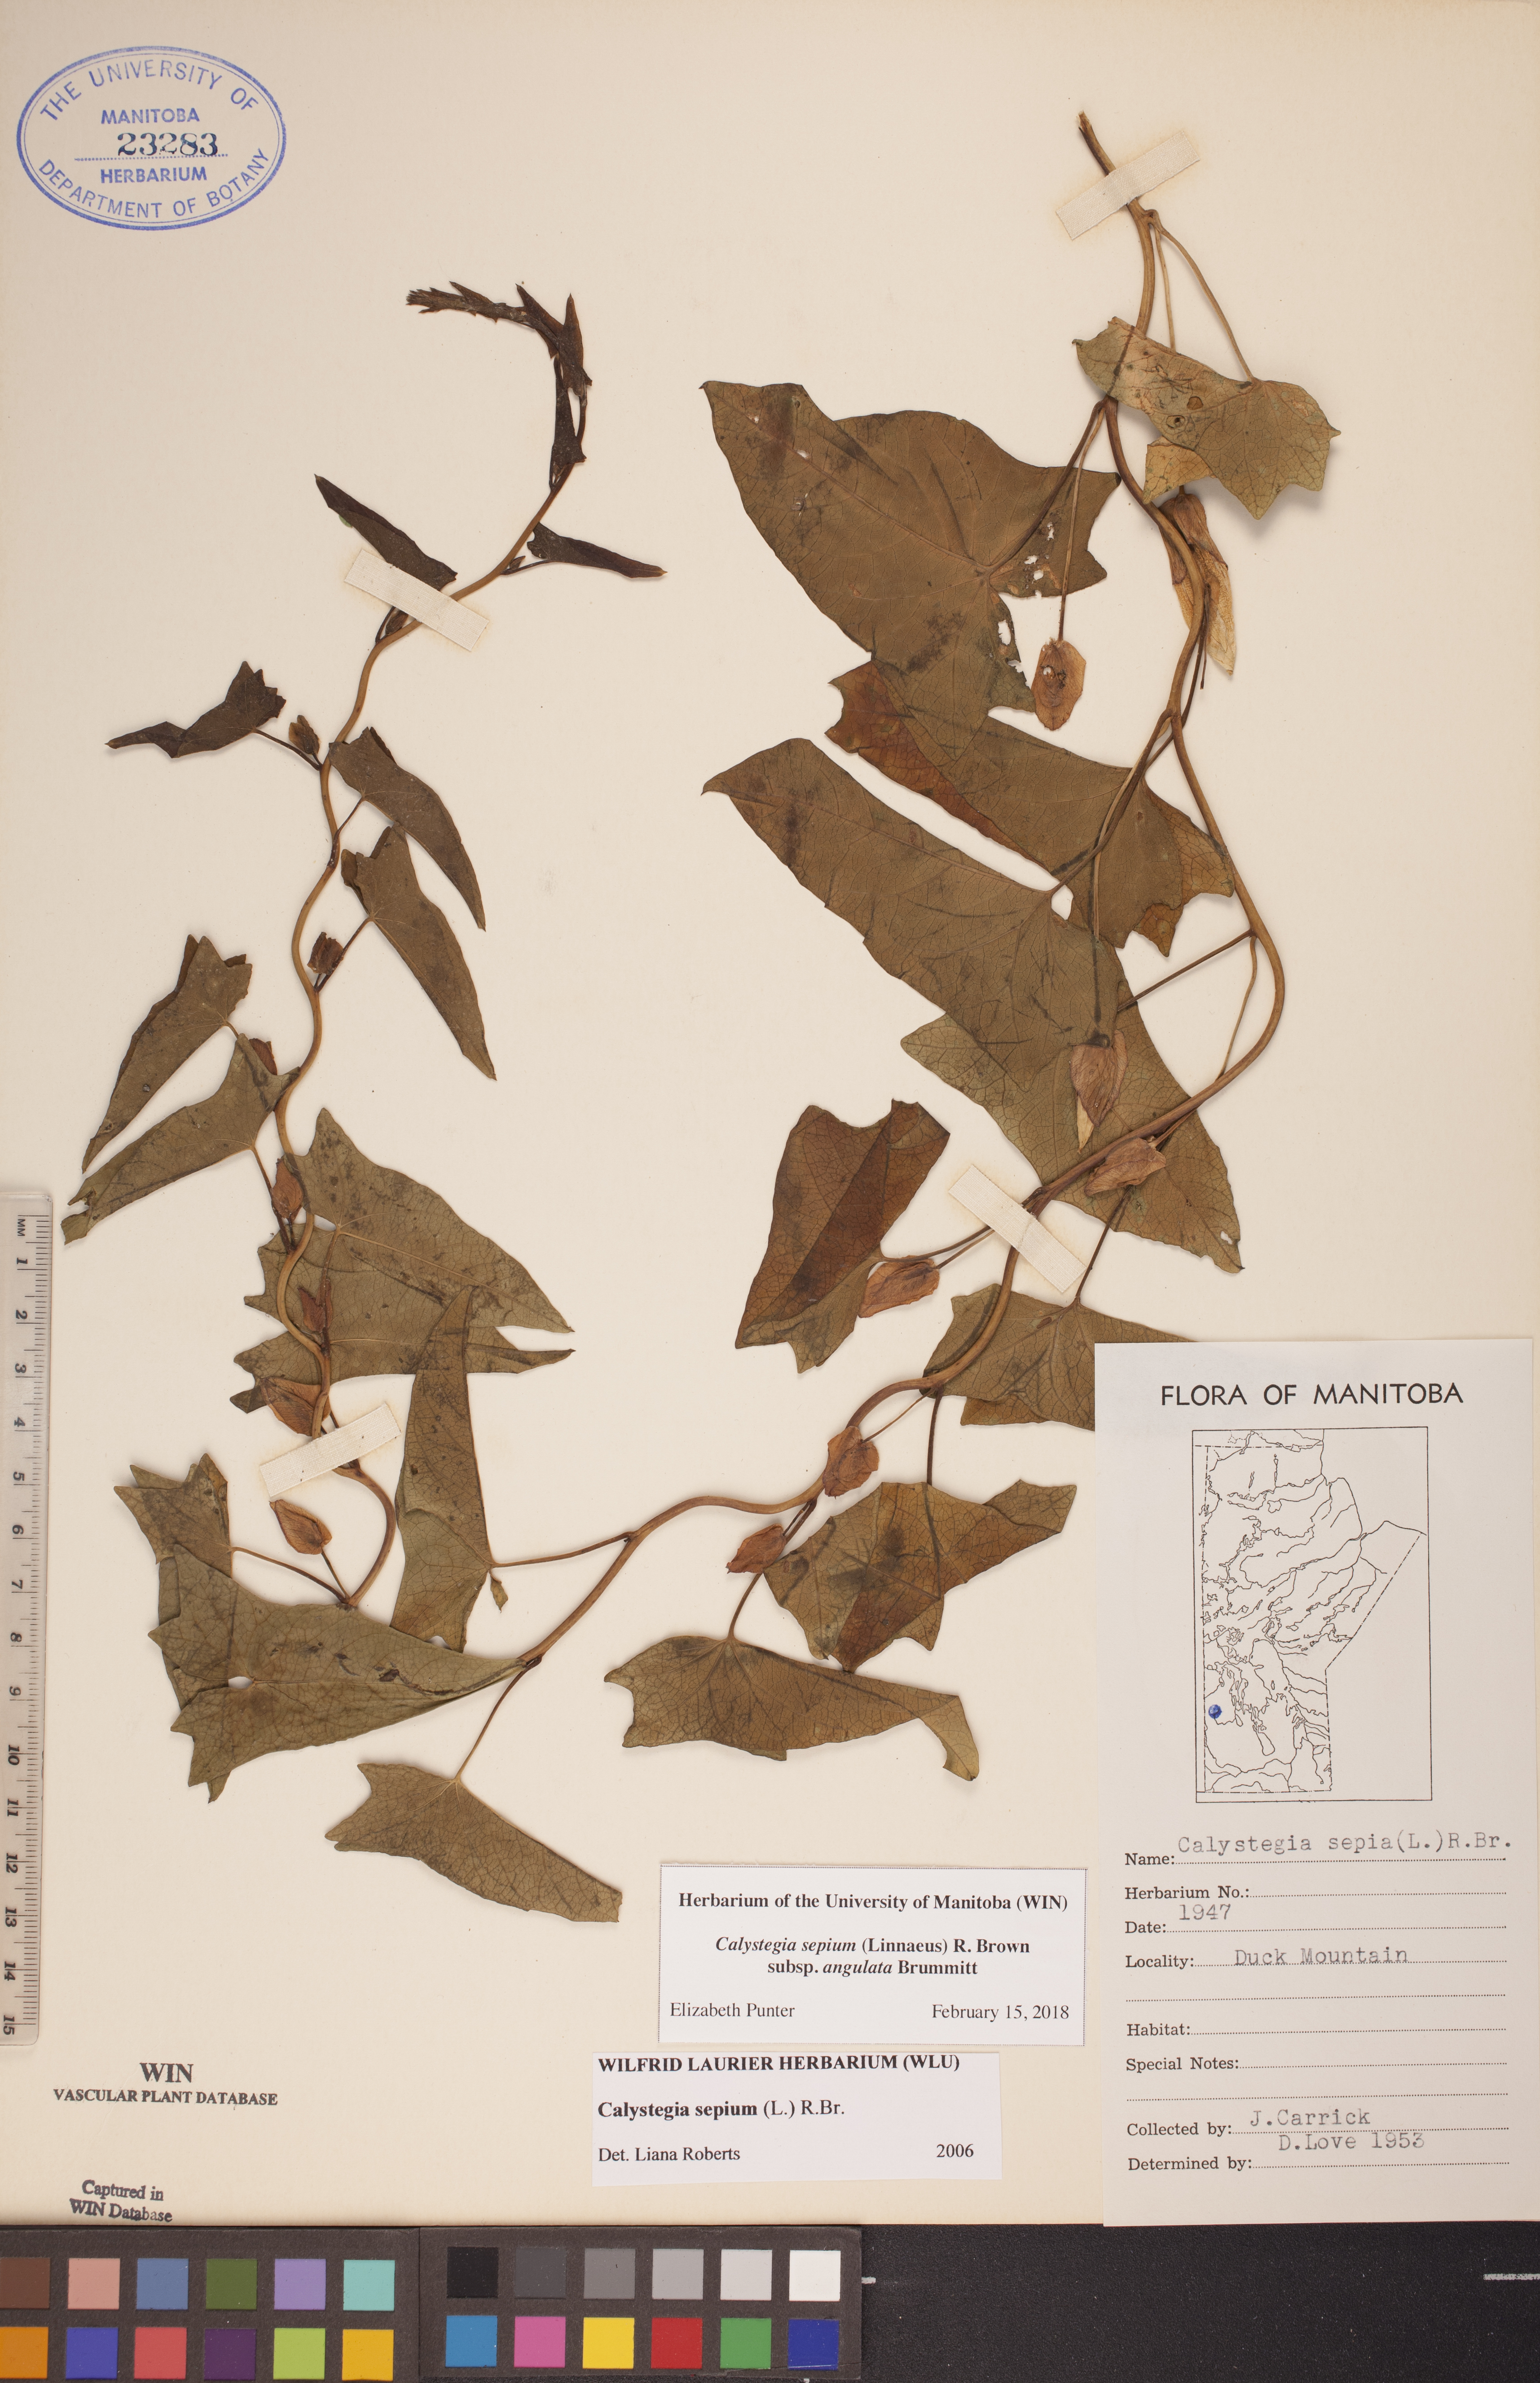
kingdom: Plantae
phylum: Tracheophyta
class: Magnoliopsida
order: Solanales
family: Convolvulaceae
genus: Calystegia
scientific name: Calystegia sepium
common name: Hedge bindweed
